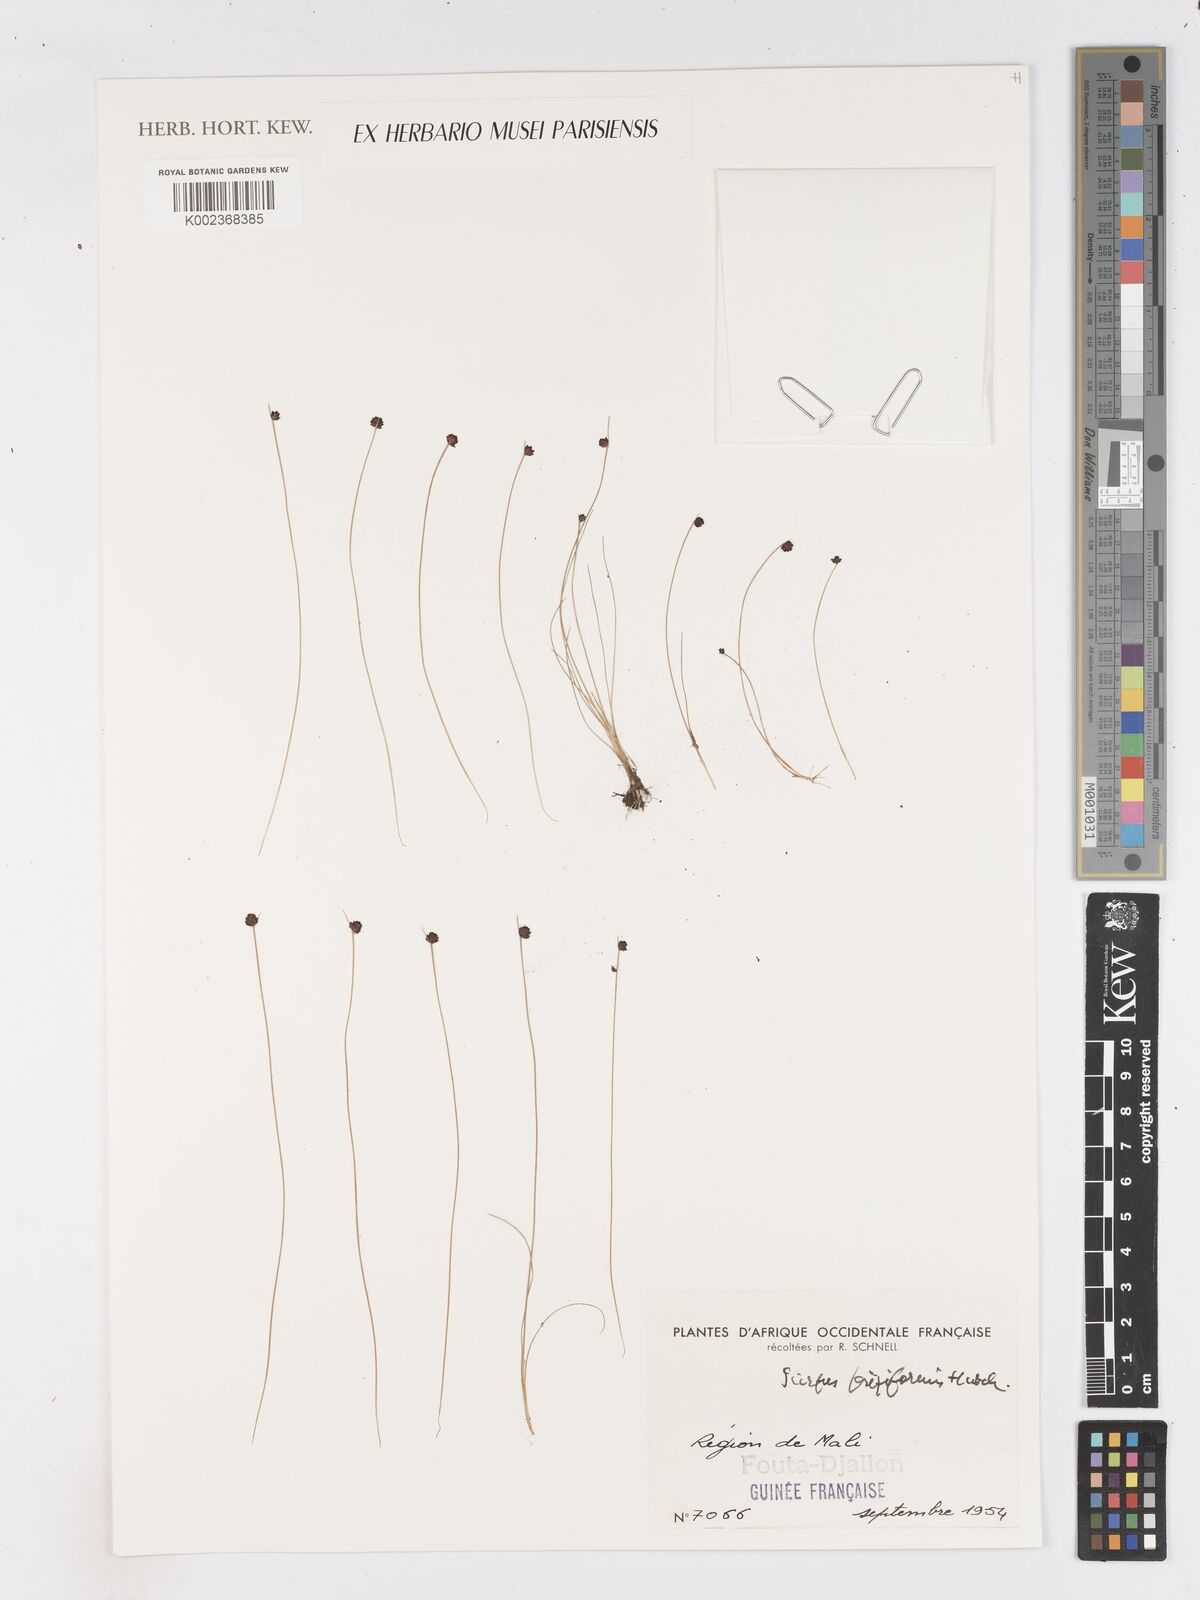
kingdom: Plantae
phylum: Tracheophyta
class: Liliopsida
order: Poales
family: Cyperaceae
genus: Isolepis
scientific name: Isolepis setacea
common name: Bristle club-rush
